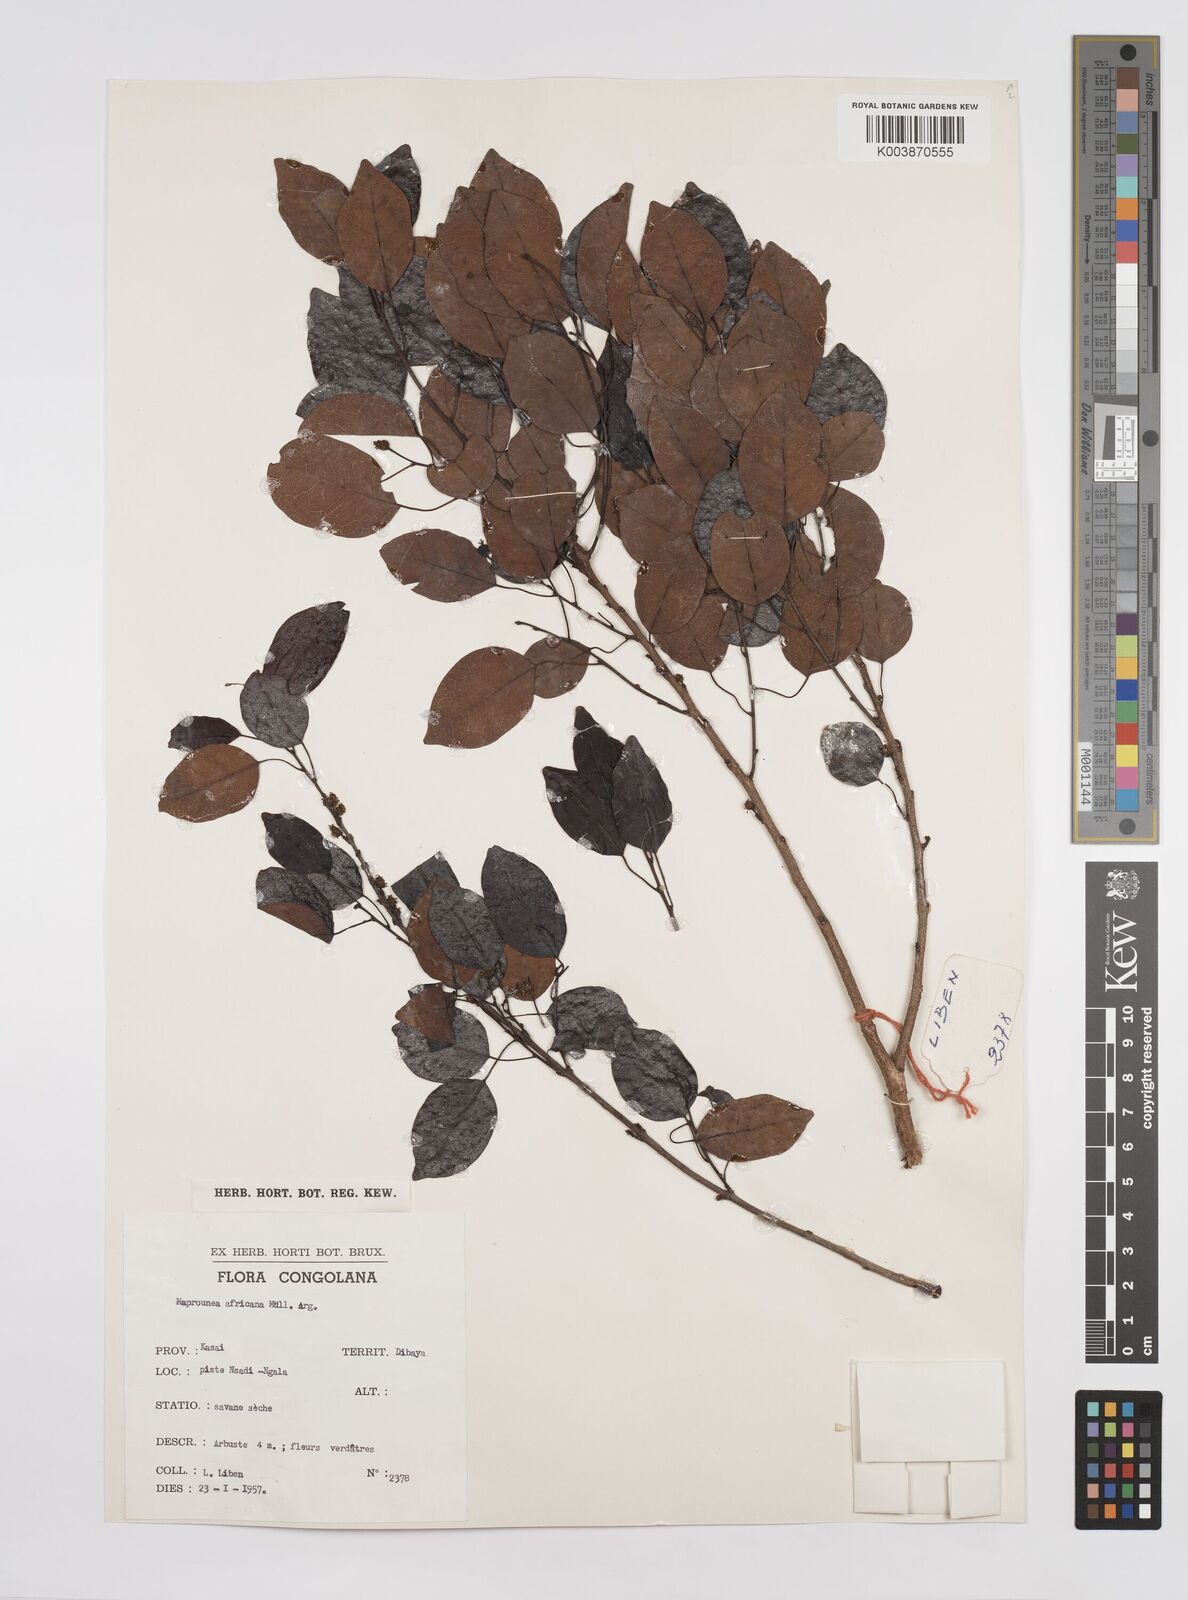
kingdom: Plantae
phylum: Tracheophyta
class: Magnoliopsida
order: Malpighiales
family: Euphorbiaceae
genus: Maprounea
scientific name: Maprounea africana
